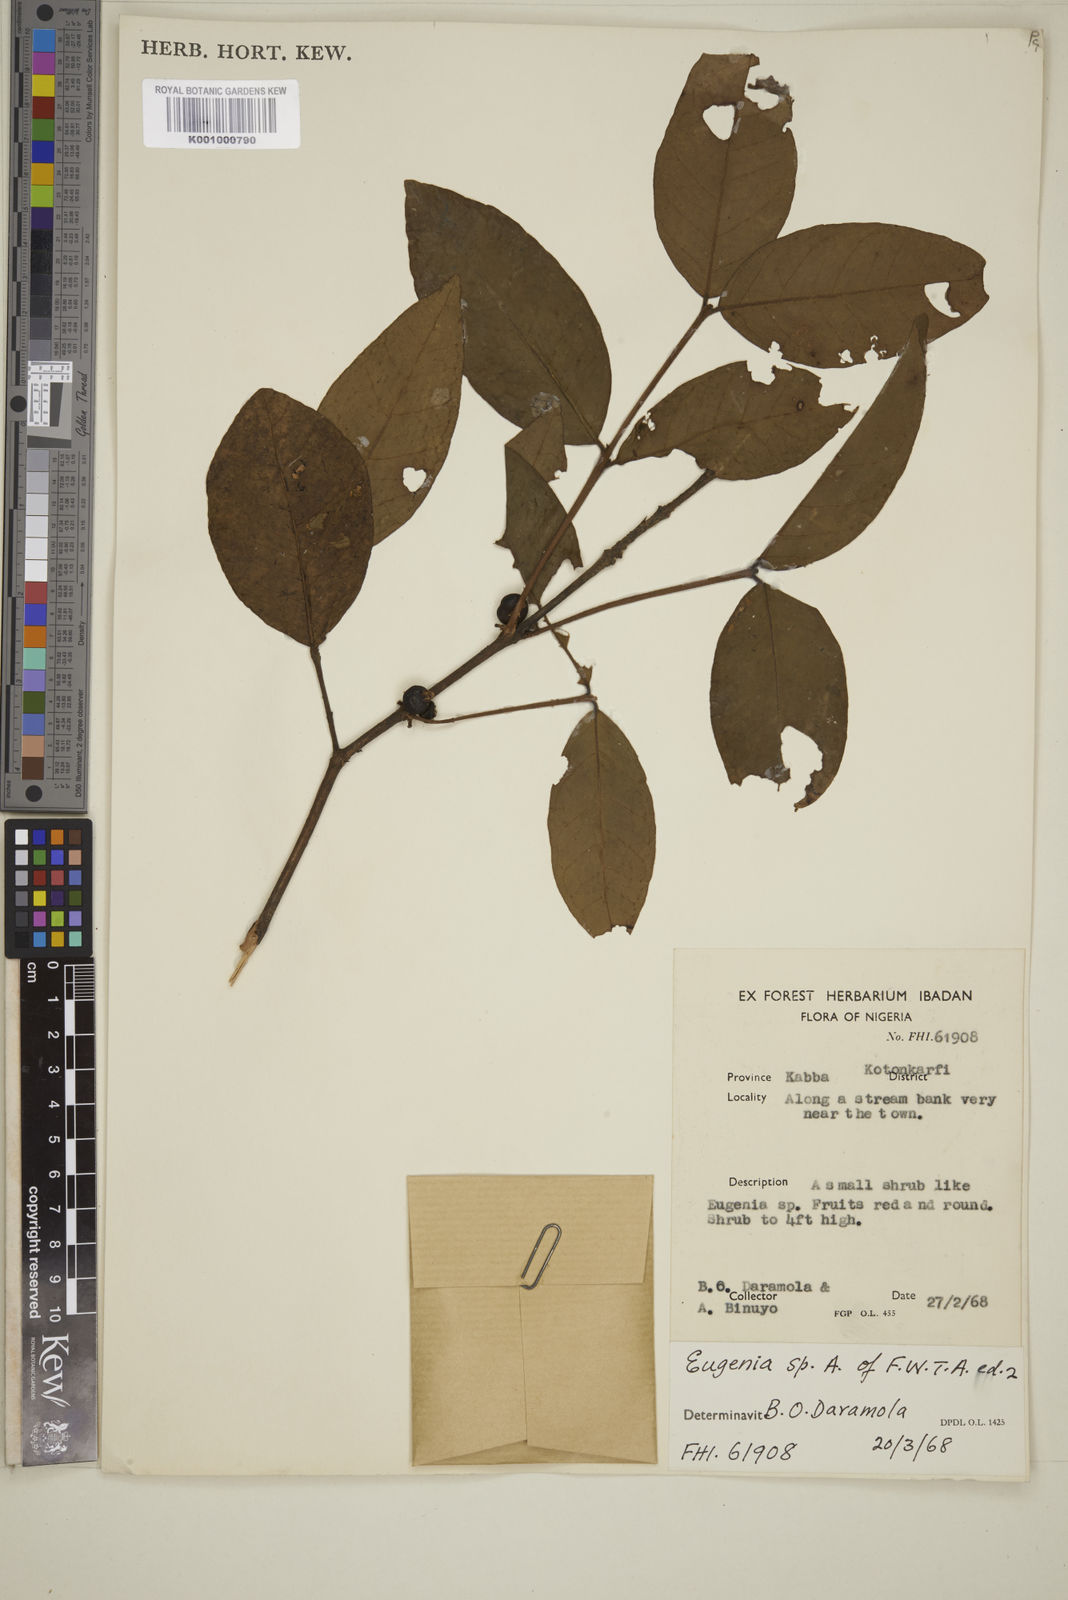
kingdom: Plantae
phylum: Tracheophyta
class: Magnoliopsida
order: Myrtales
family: Myrtaceae
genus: Eugenia
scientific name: Eugenia
